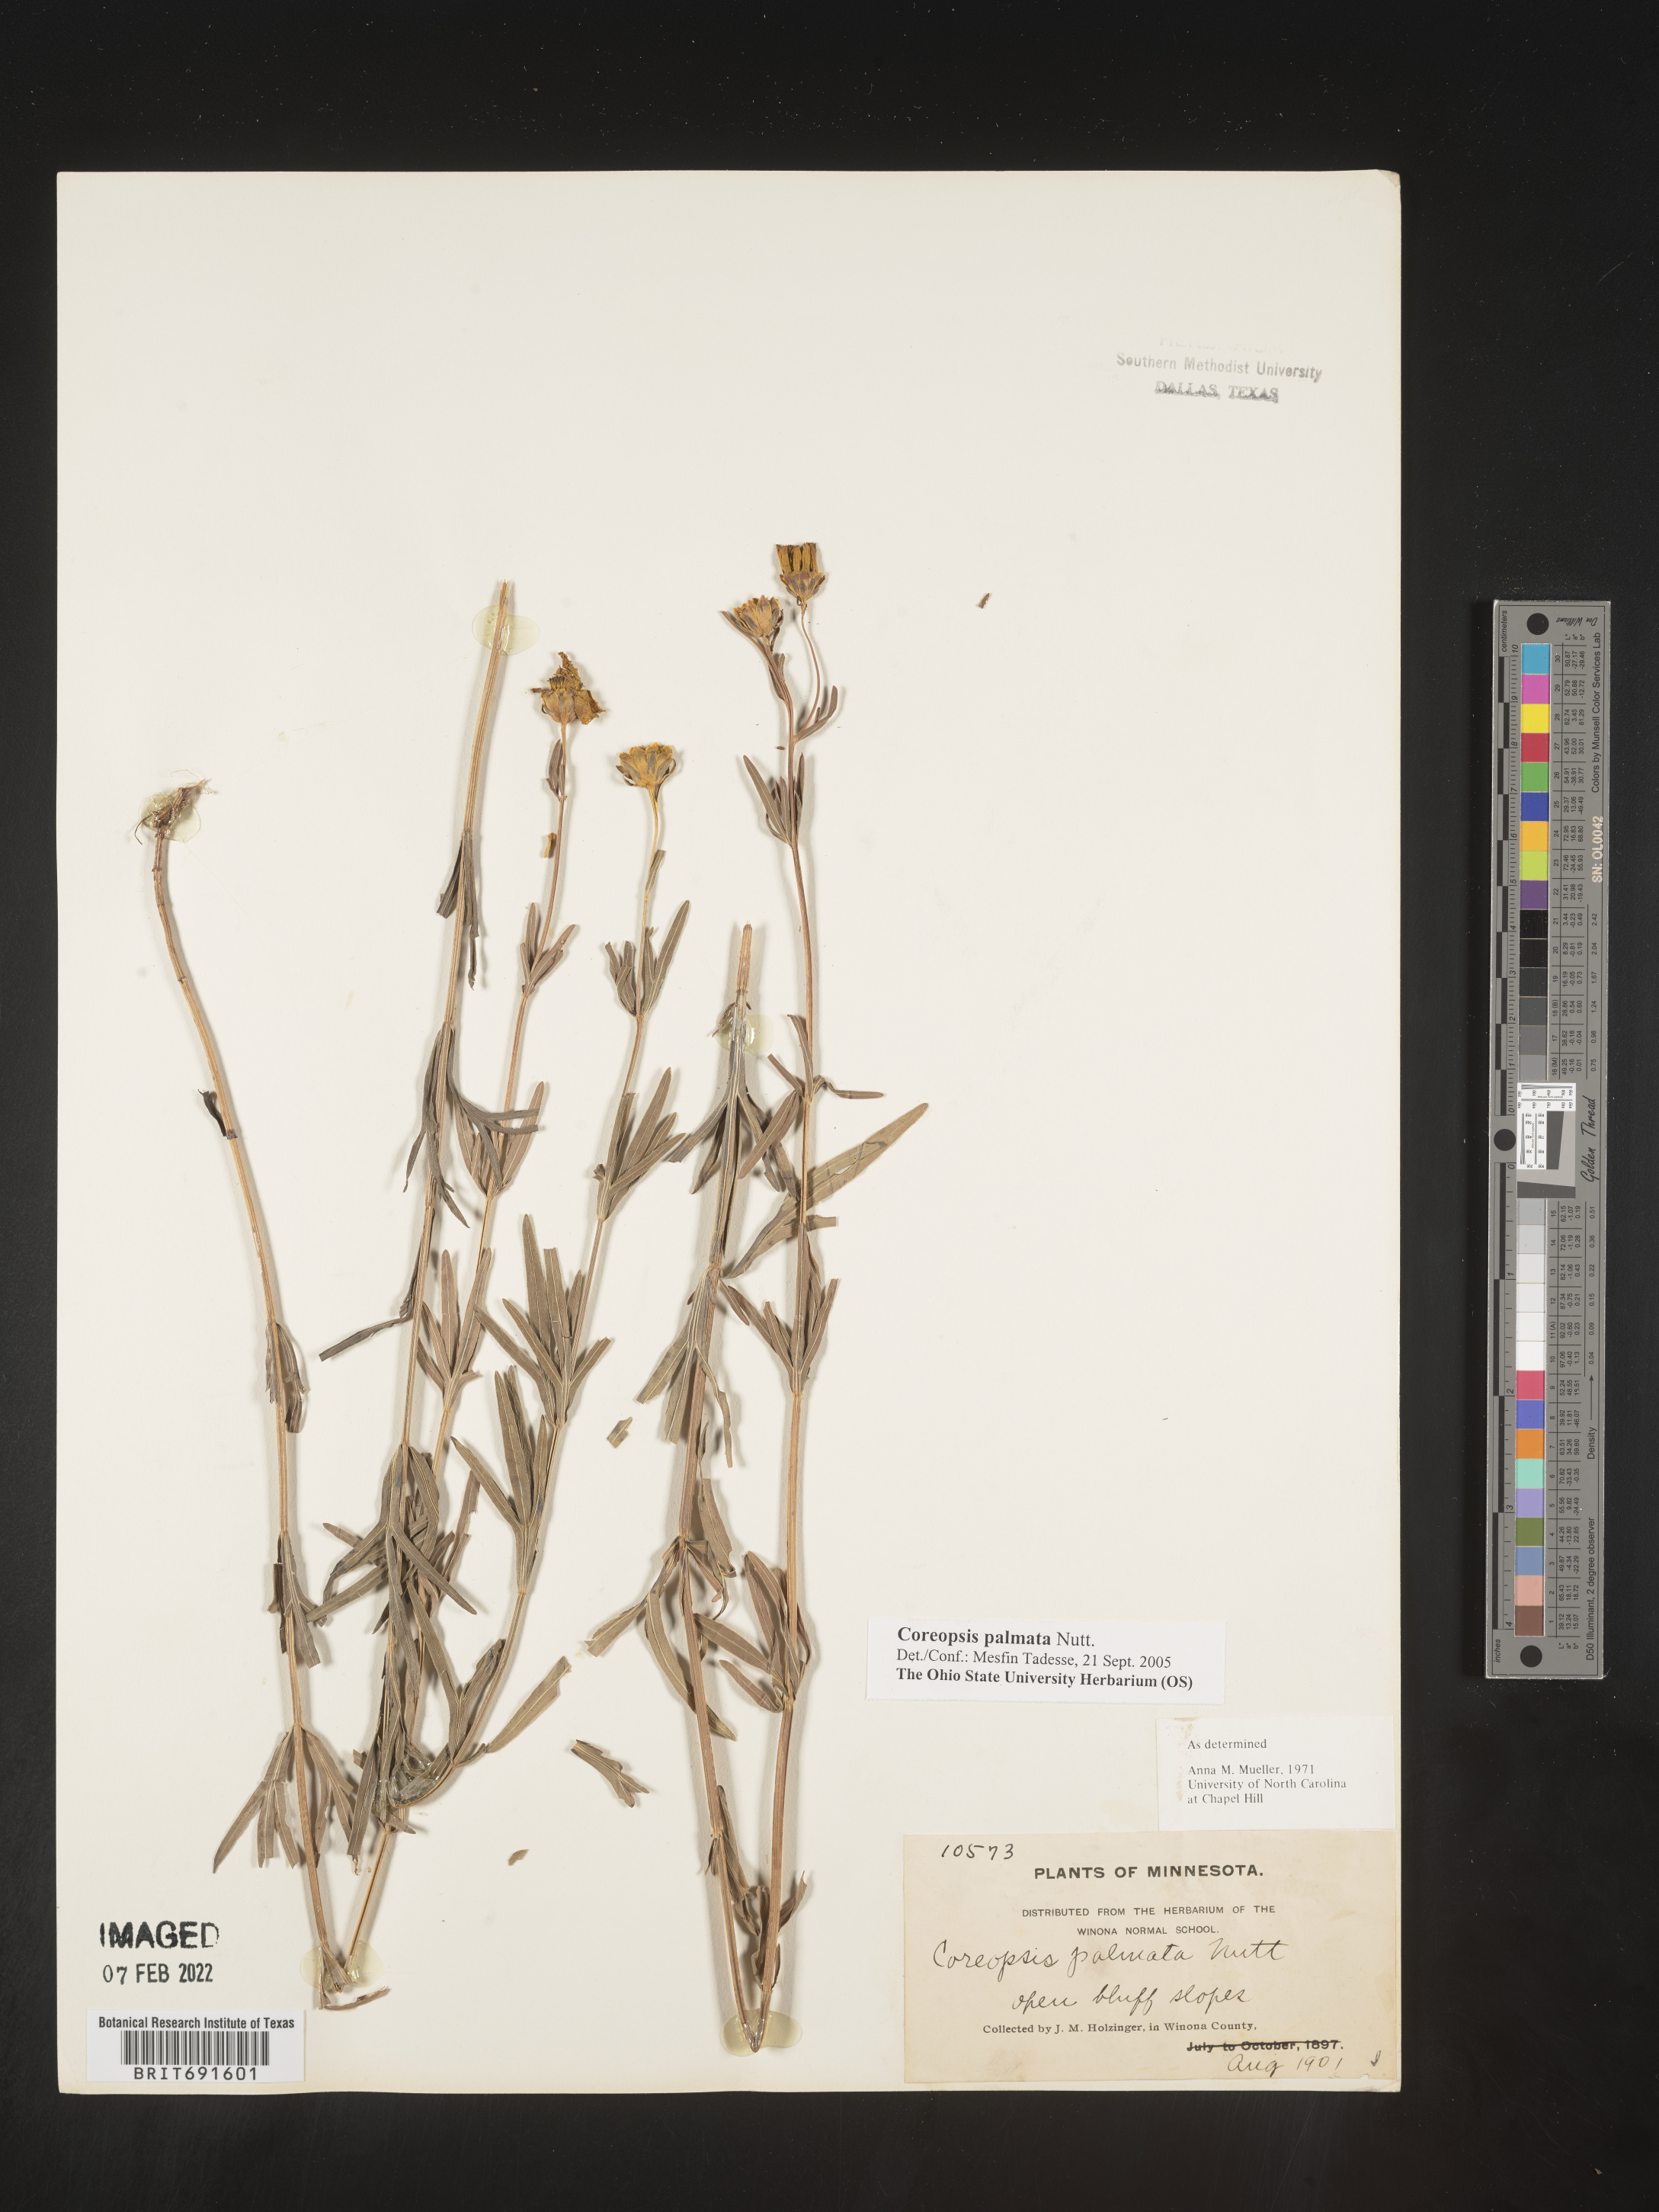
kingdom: Plantae
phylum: Tracheophyta
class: Magnoliopsida
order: Asterales
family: Asteraceae
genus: Coreopsis
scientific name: Coreopsis palmata
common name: Prairie coreopsis
